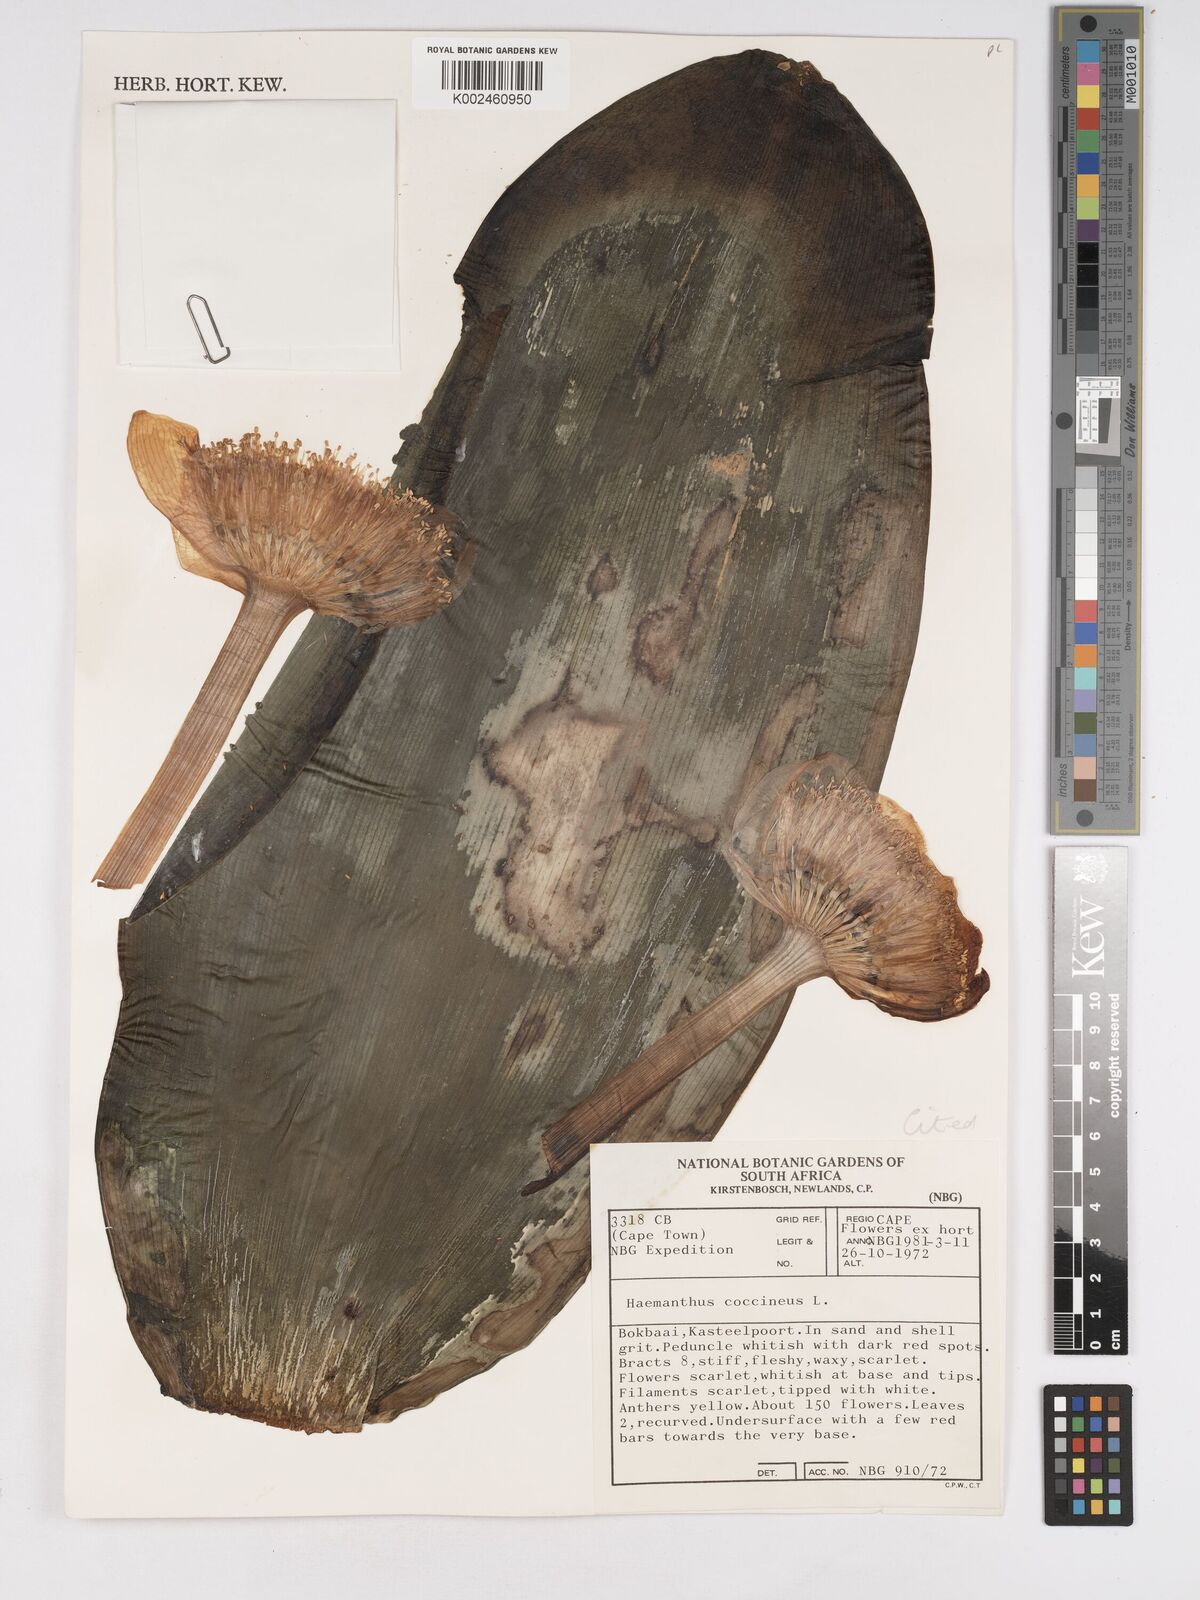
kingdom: Plantae
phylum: Tracheophyta
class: Liliopsida
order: Asparagales
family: Amaryllidaceae
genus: Haemanthus
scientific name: Haemanthus coccineus
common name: Cape-tulip
